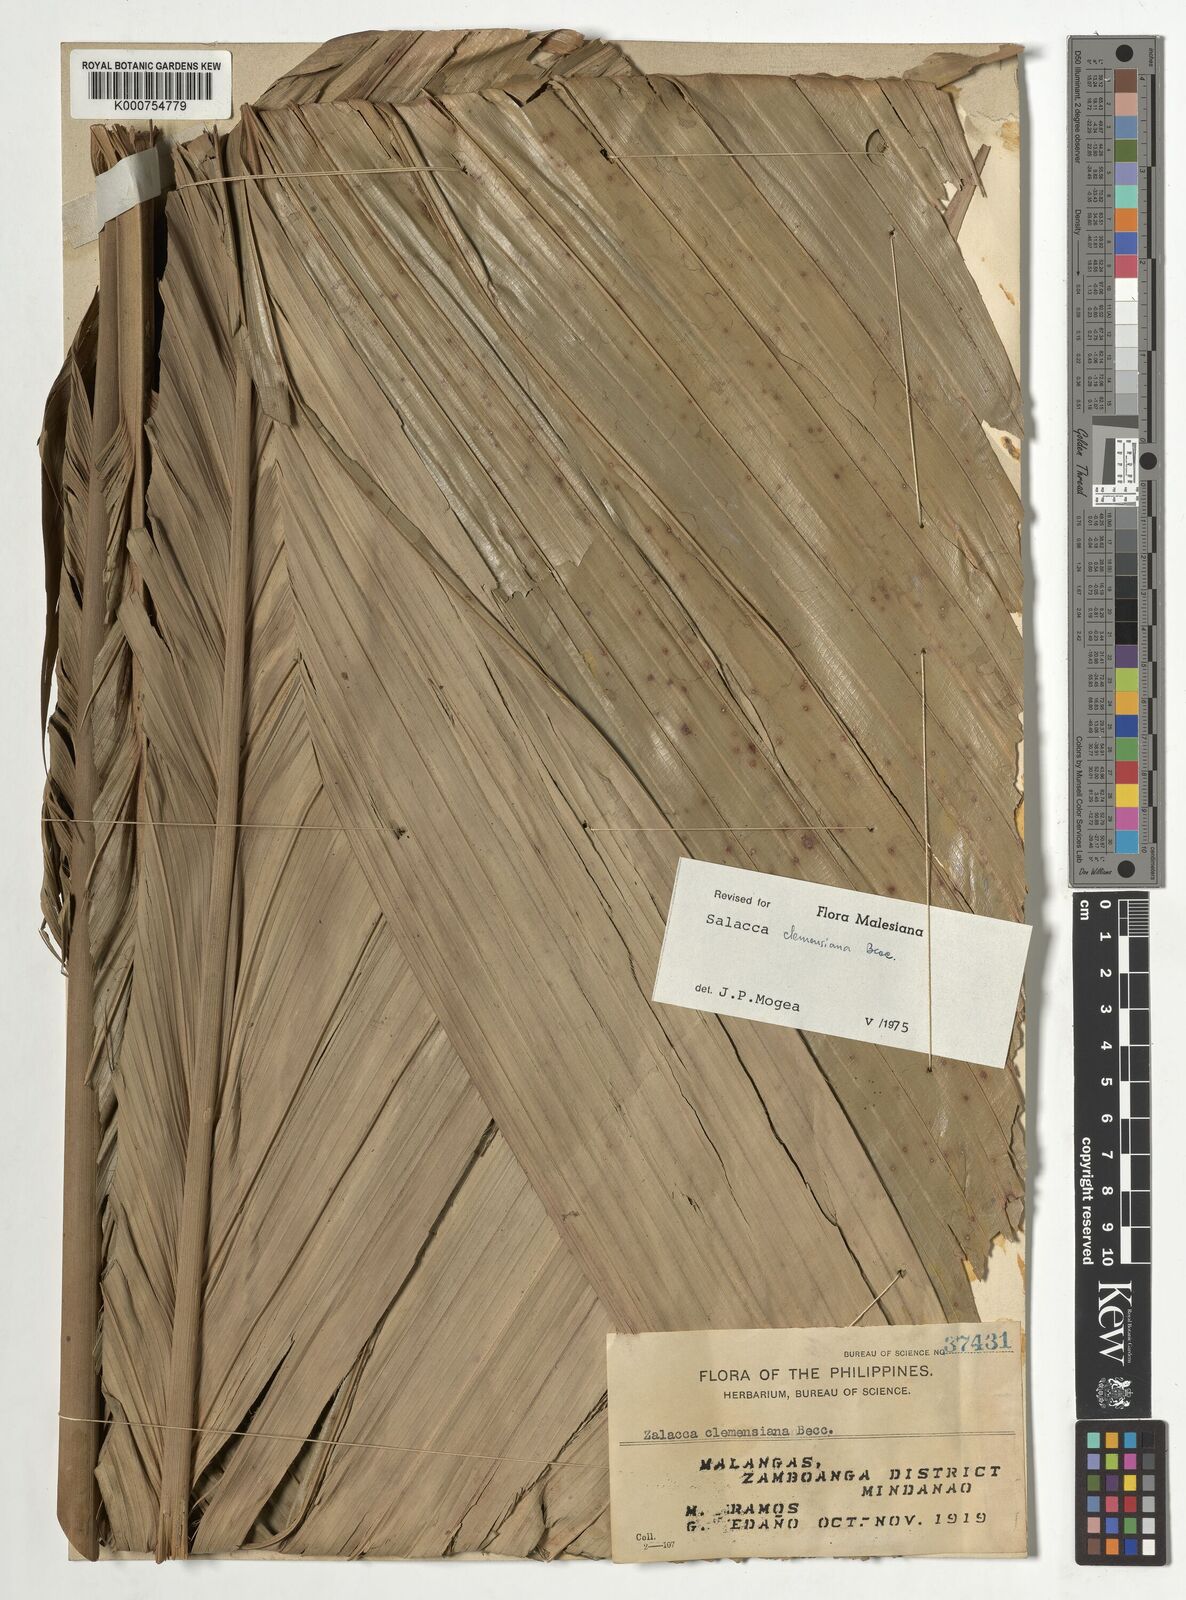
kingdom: Plantae
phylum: Tracheophyta
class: Liliopsida
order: Arecales
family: Arecaceae
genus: Salacca
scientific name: Salacca clemensiana
